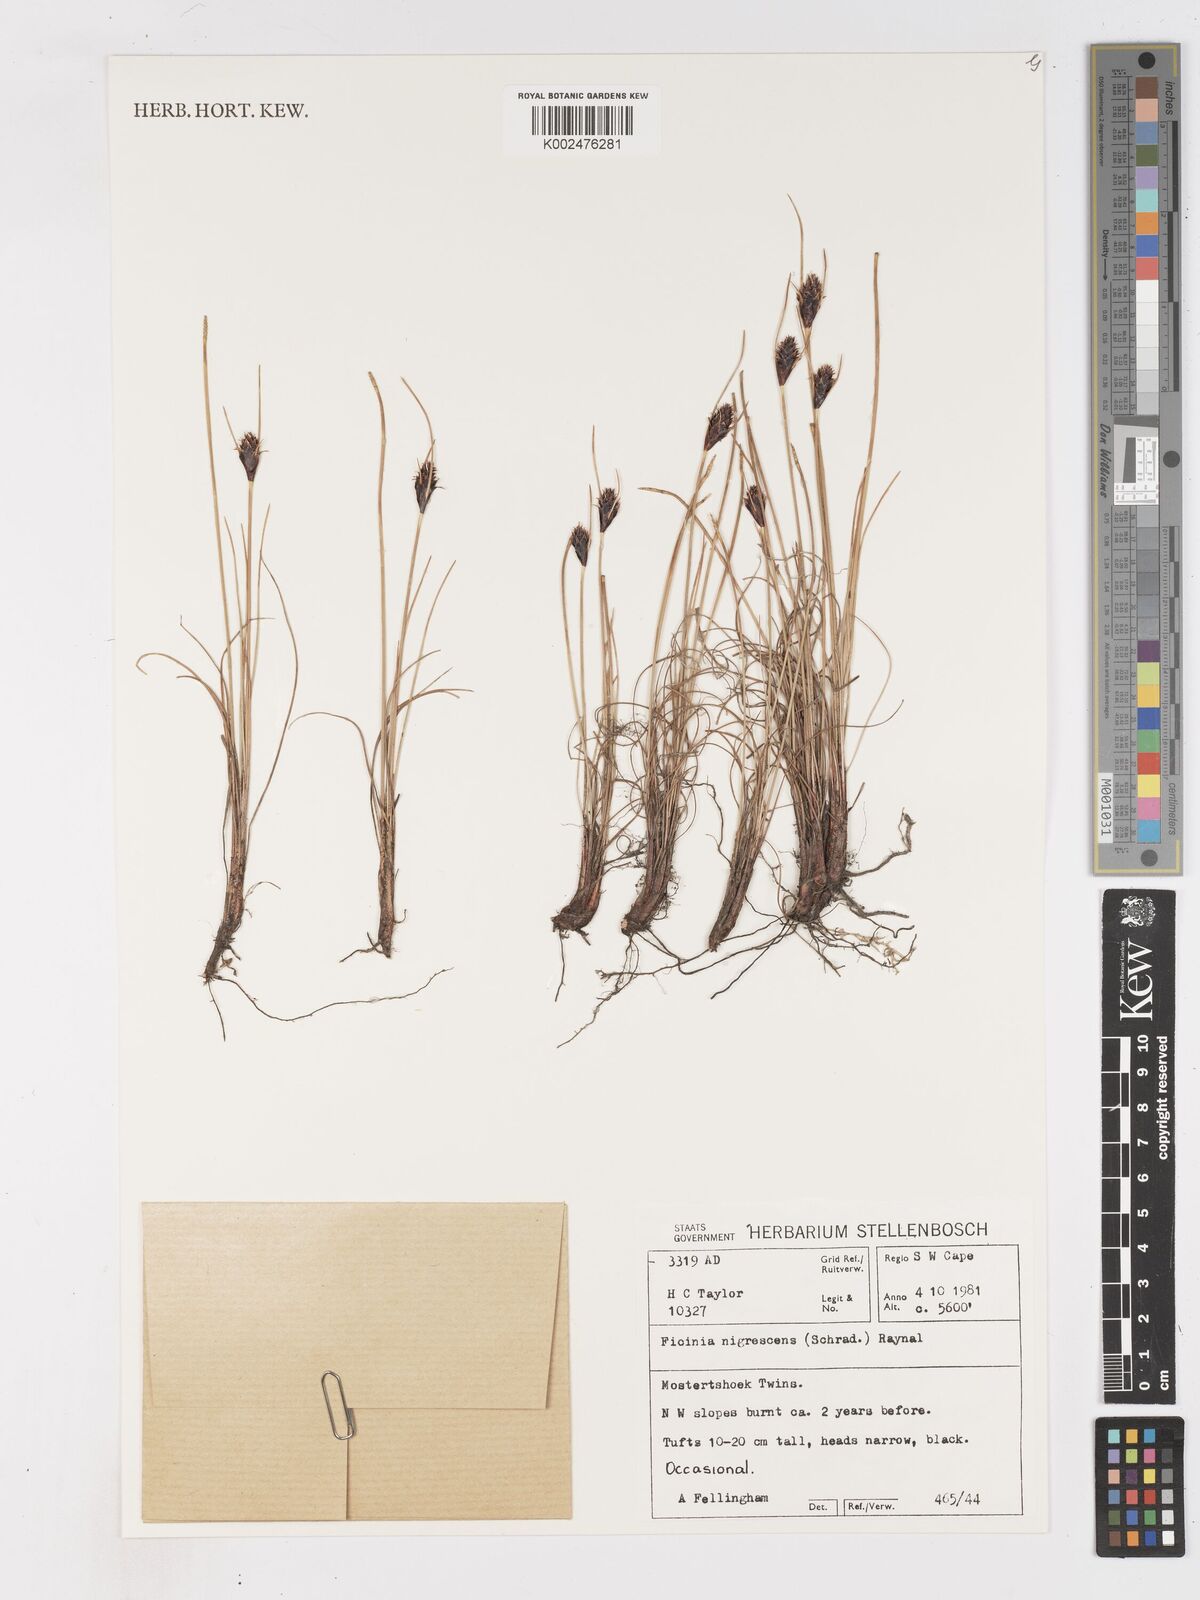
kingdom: Plantae
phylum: Tracheophyta
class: Liliopsida
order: Poales
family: Cyperaceae
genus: Ficinia
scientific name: Ficinia nigrescens
